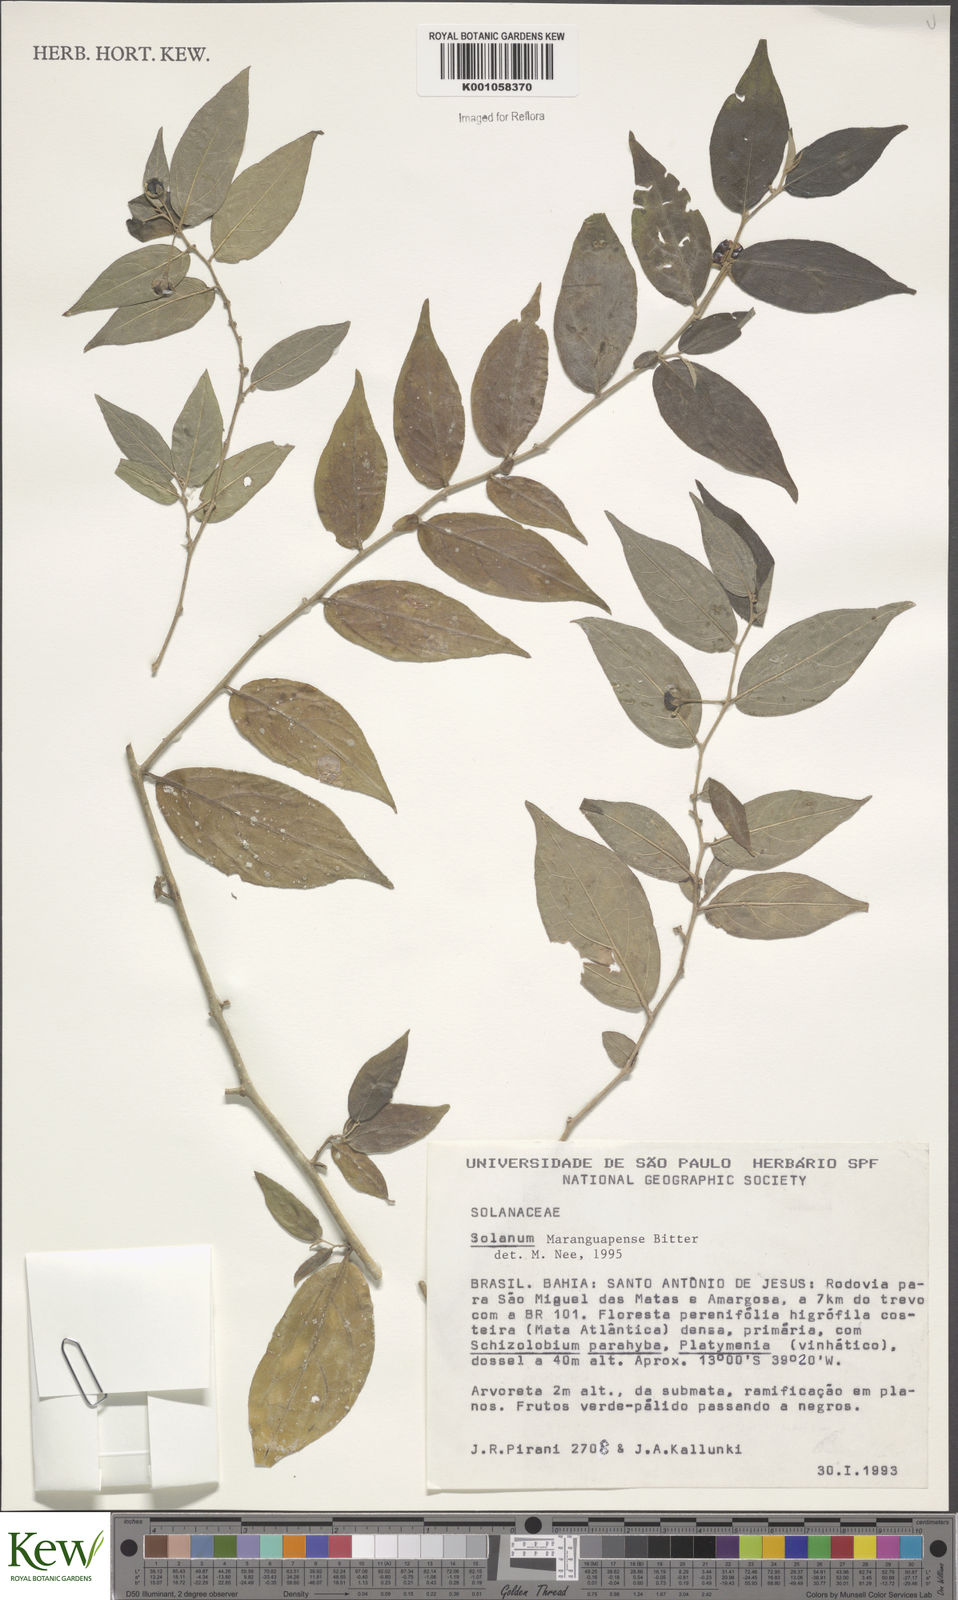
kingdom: Plantae
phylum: Tracheophyta
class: Magnoliopsida
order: Solanales
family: Solanaceae
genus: Solanum
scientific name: Solanum maranguapense
